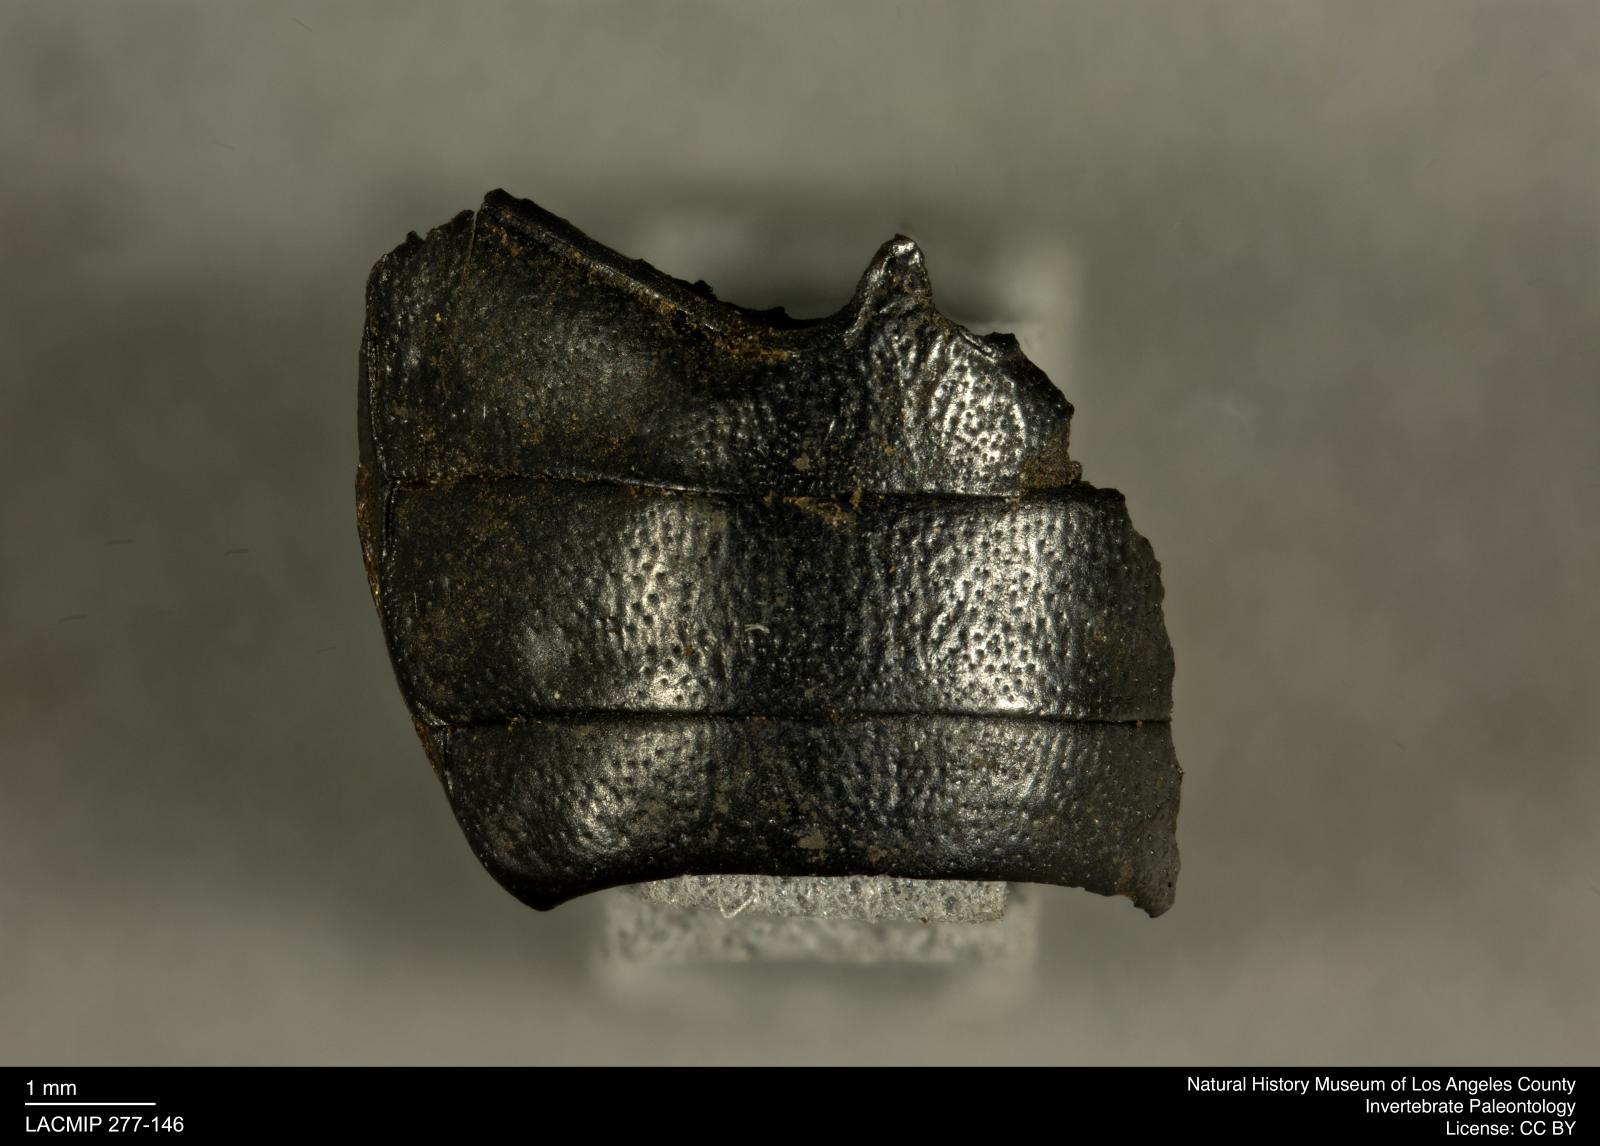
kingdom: Animalia
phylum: Arthropoda
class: Insecta
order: Coleoptera
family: Tenebrionidae
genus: Coniontis
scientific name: Coniontis abdominalis
